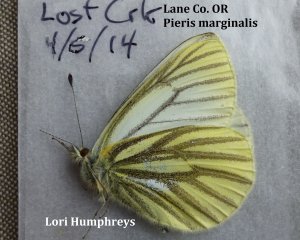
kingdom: Animalia
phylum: Arthropoda
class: Insecta
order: Lepidoptera
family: Pieridae
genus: Pieris
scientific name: Pieris marginalis
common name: Margined White
